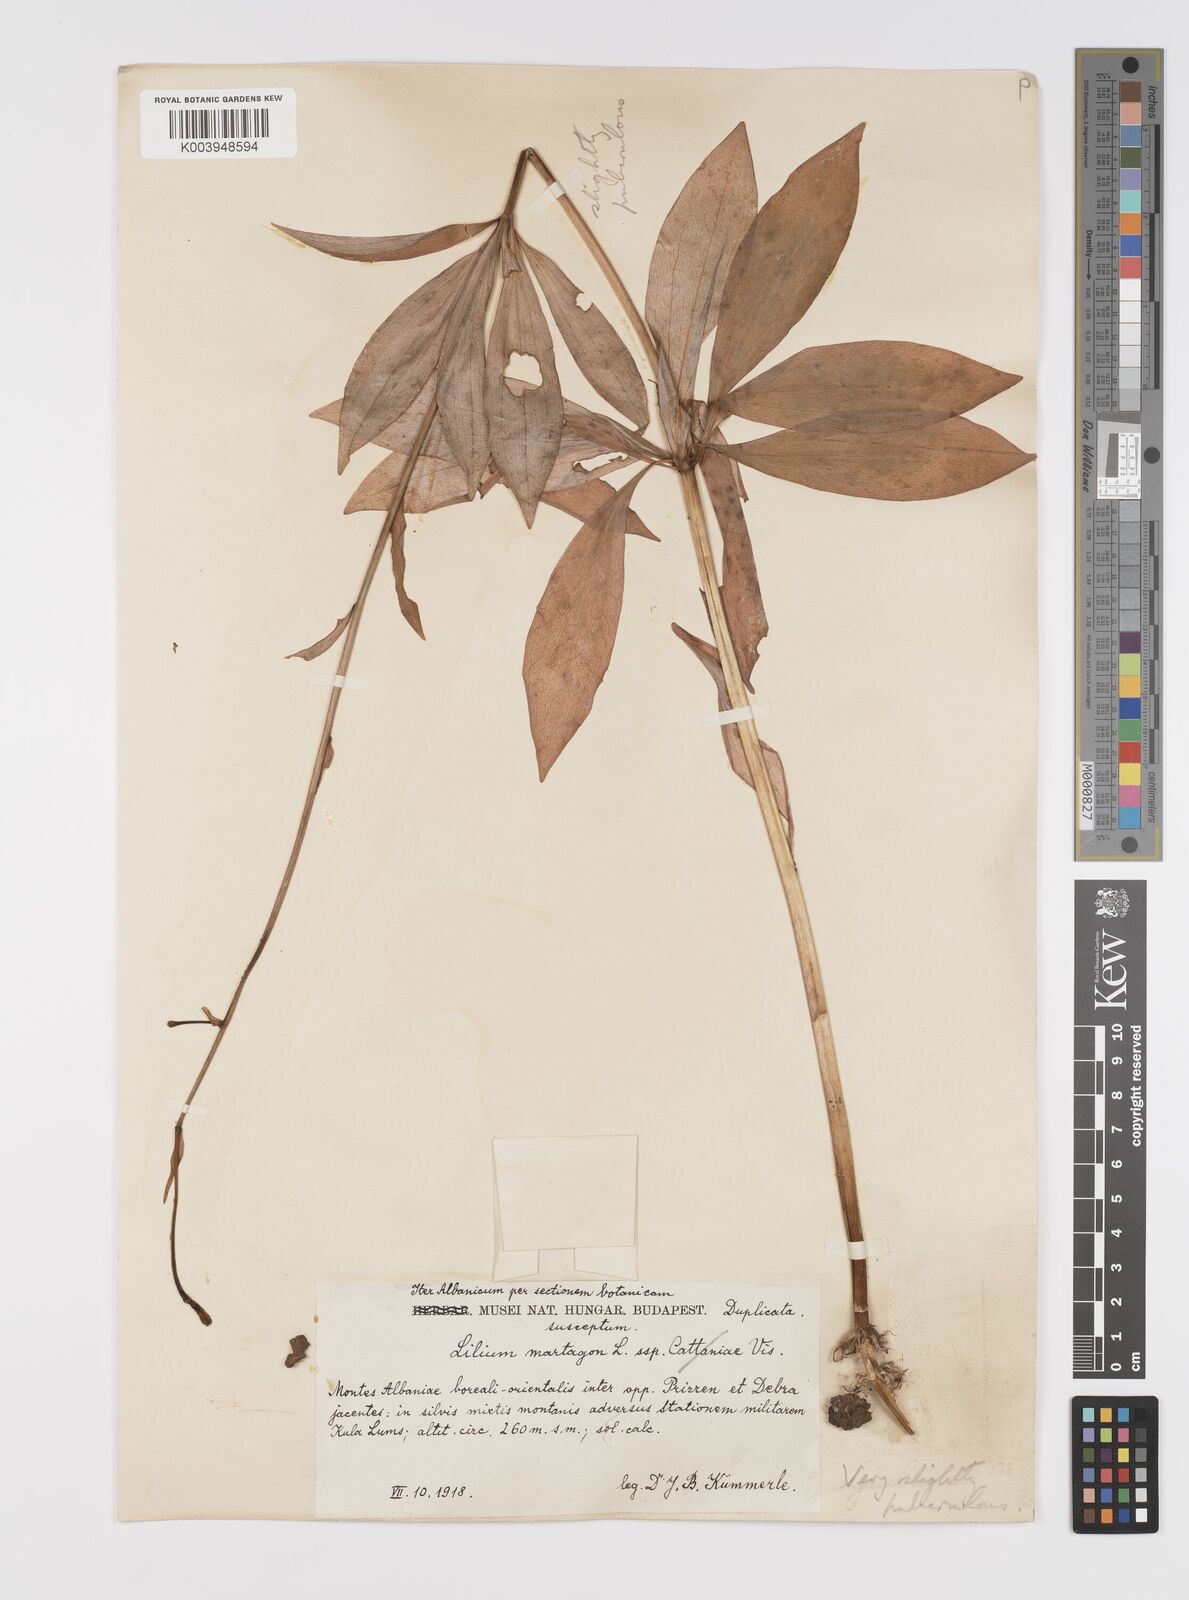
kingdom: Plantae
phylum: Tracheophyta
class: Liliopsida
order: Liliales
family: Liliaceae
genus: Lilium
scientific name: Lilium martagon
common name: Martagon lily
